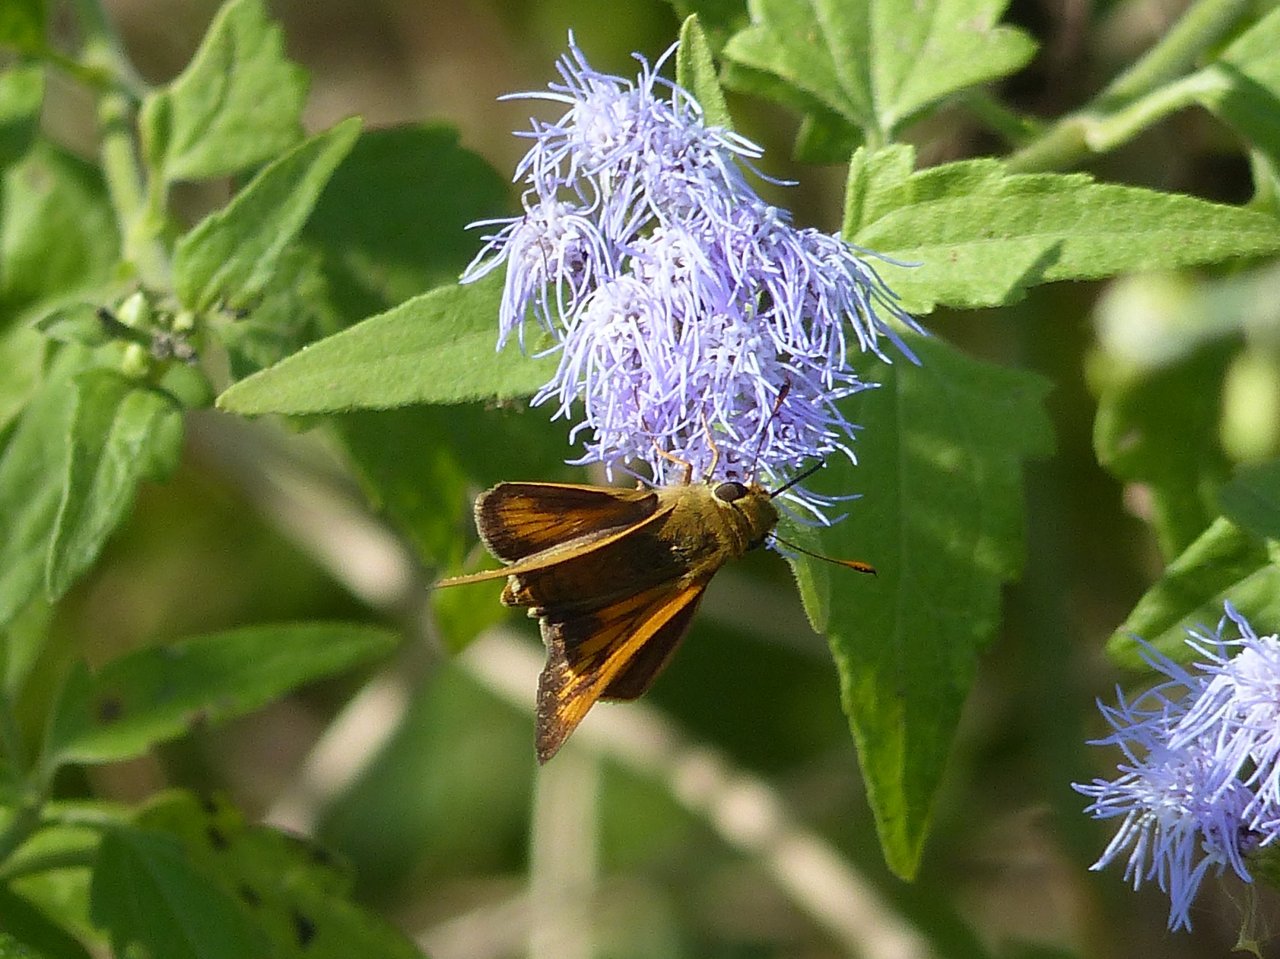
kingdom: Animalia
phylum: Arthropoda
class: Insecta
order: Lepidoptera
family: Hesperiidae
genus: Mellana
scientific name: Mellana eulogius
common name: Common Mellana
